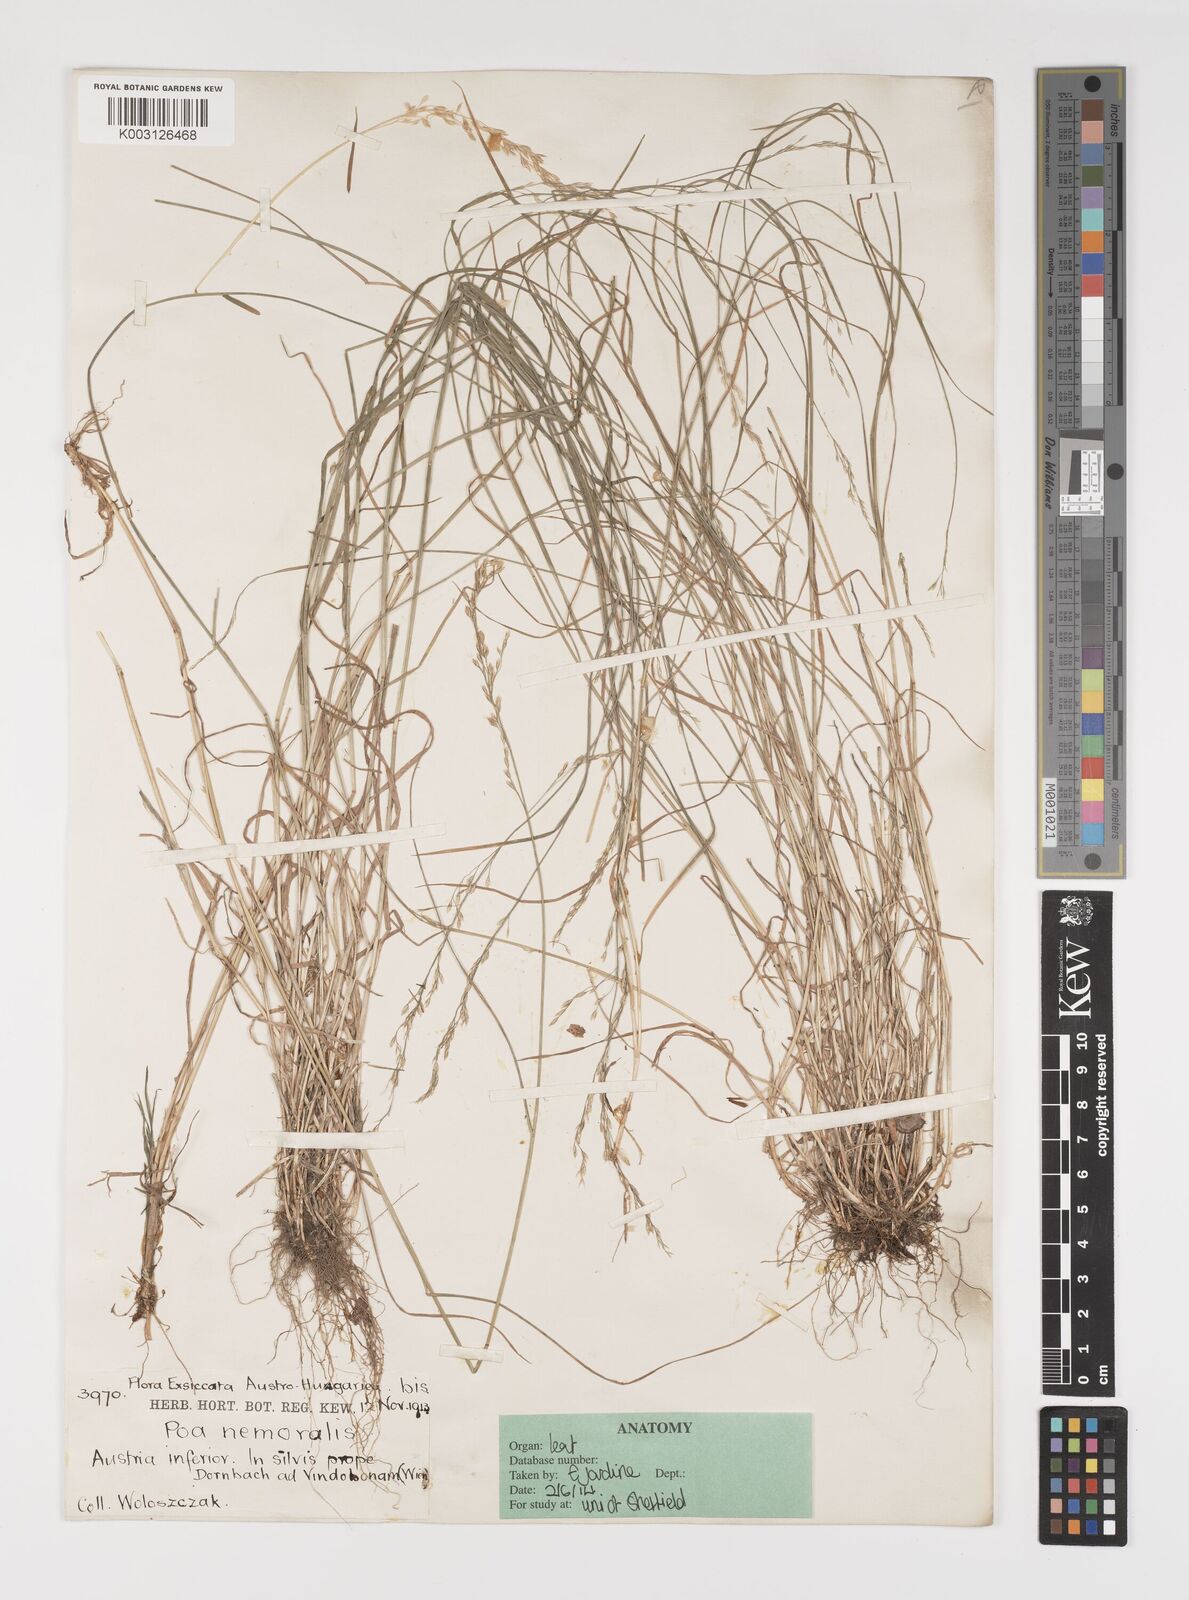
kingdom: Plantae
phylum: Tracheophyta
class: Liliopsida
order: Poales
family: Poaceae
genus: Poa
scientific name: Poa nemoralis
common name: Wood bluegrass
